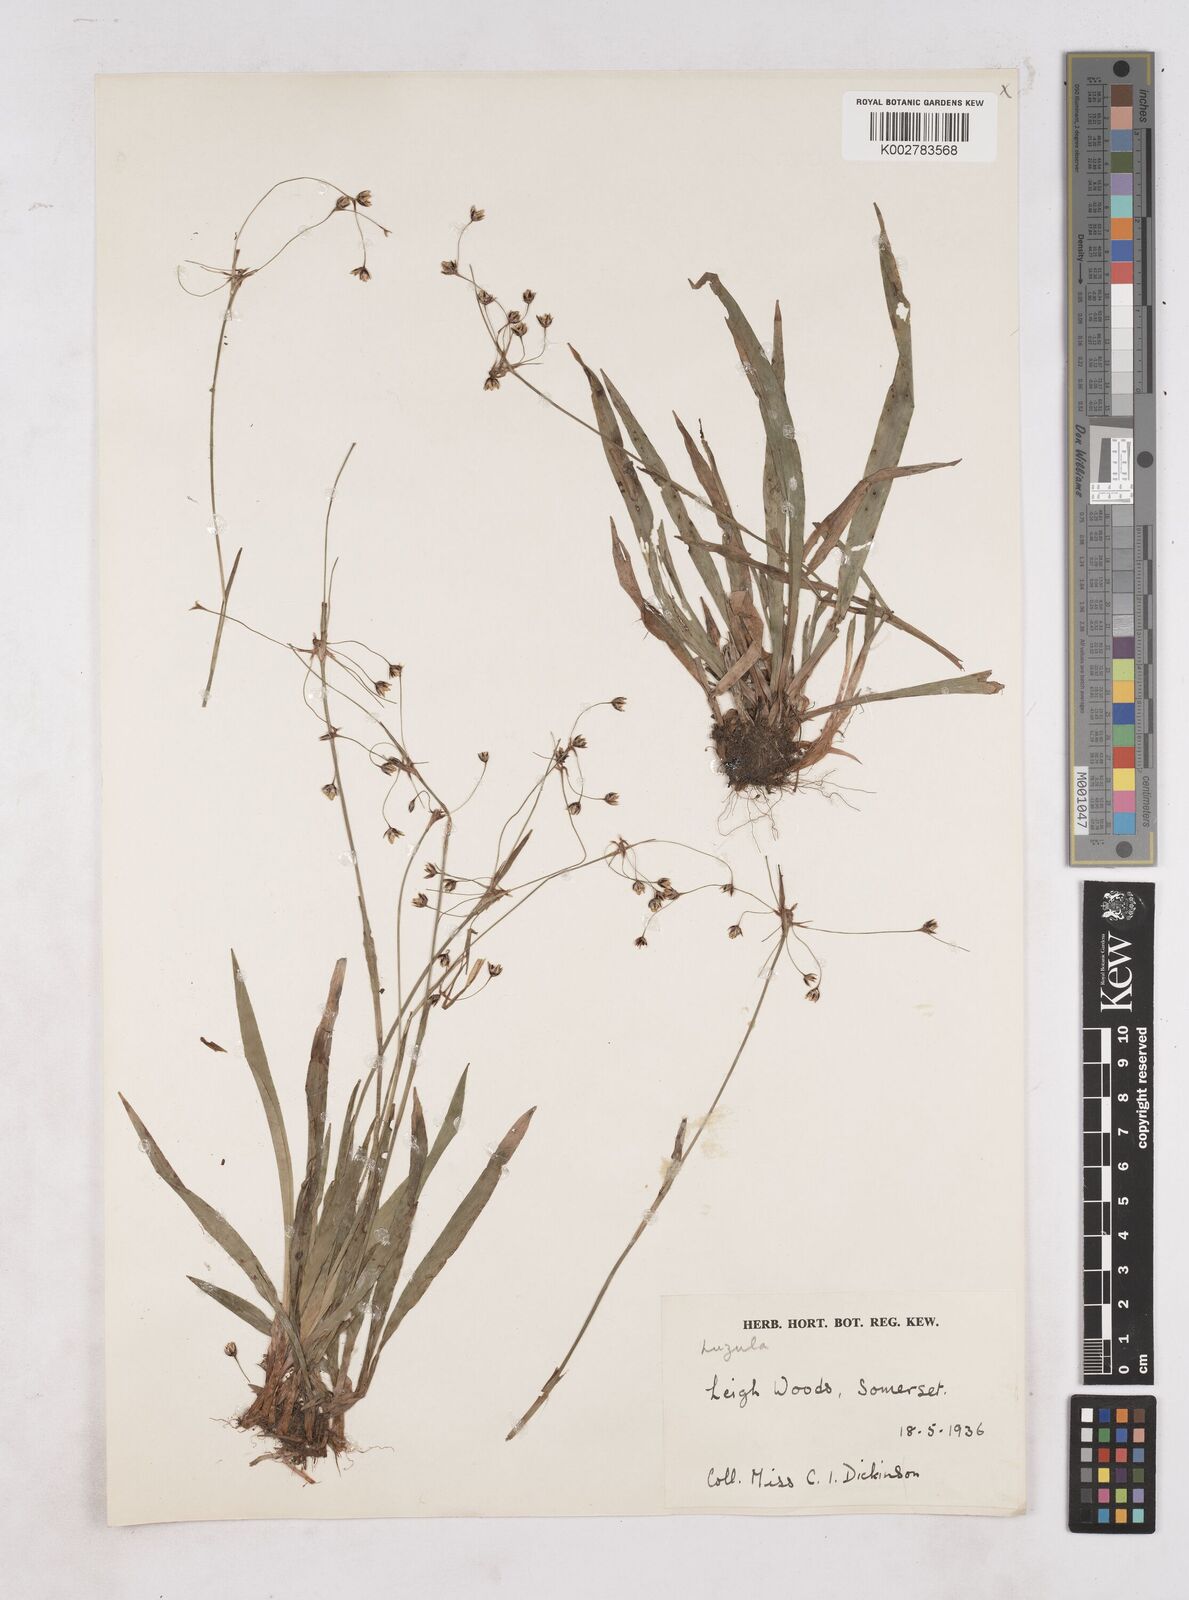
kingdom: Plantae
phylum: Tracheophyta
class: Liliopsida
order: Poales
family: Juncaceae
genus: Luzula
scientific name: Luzula
